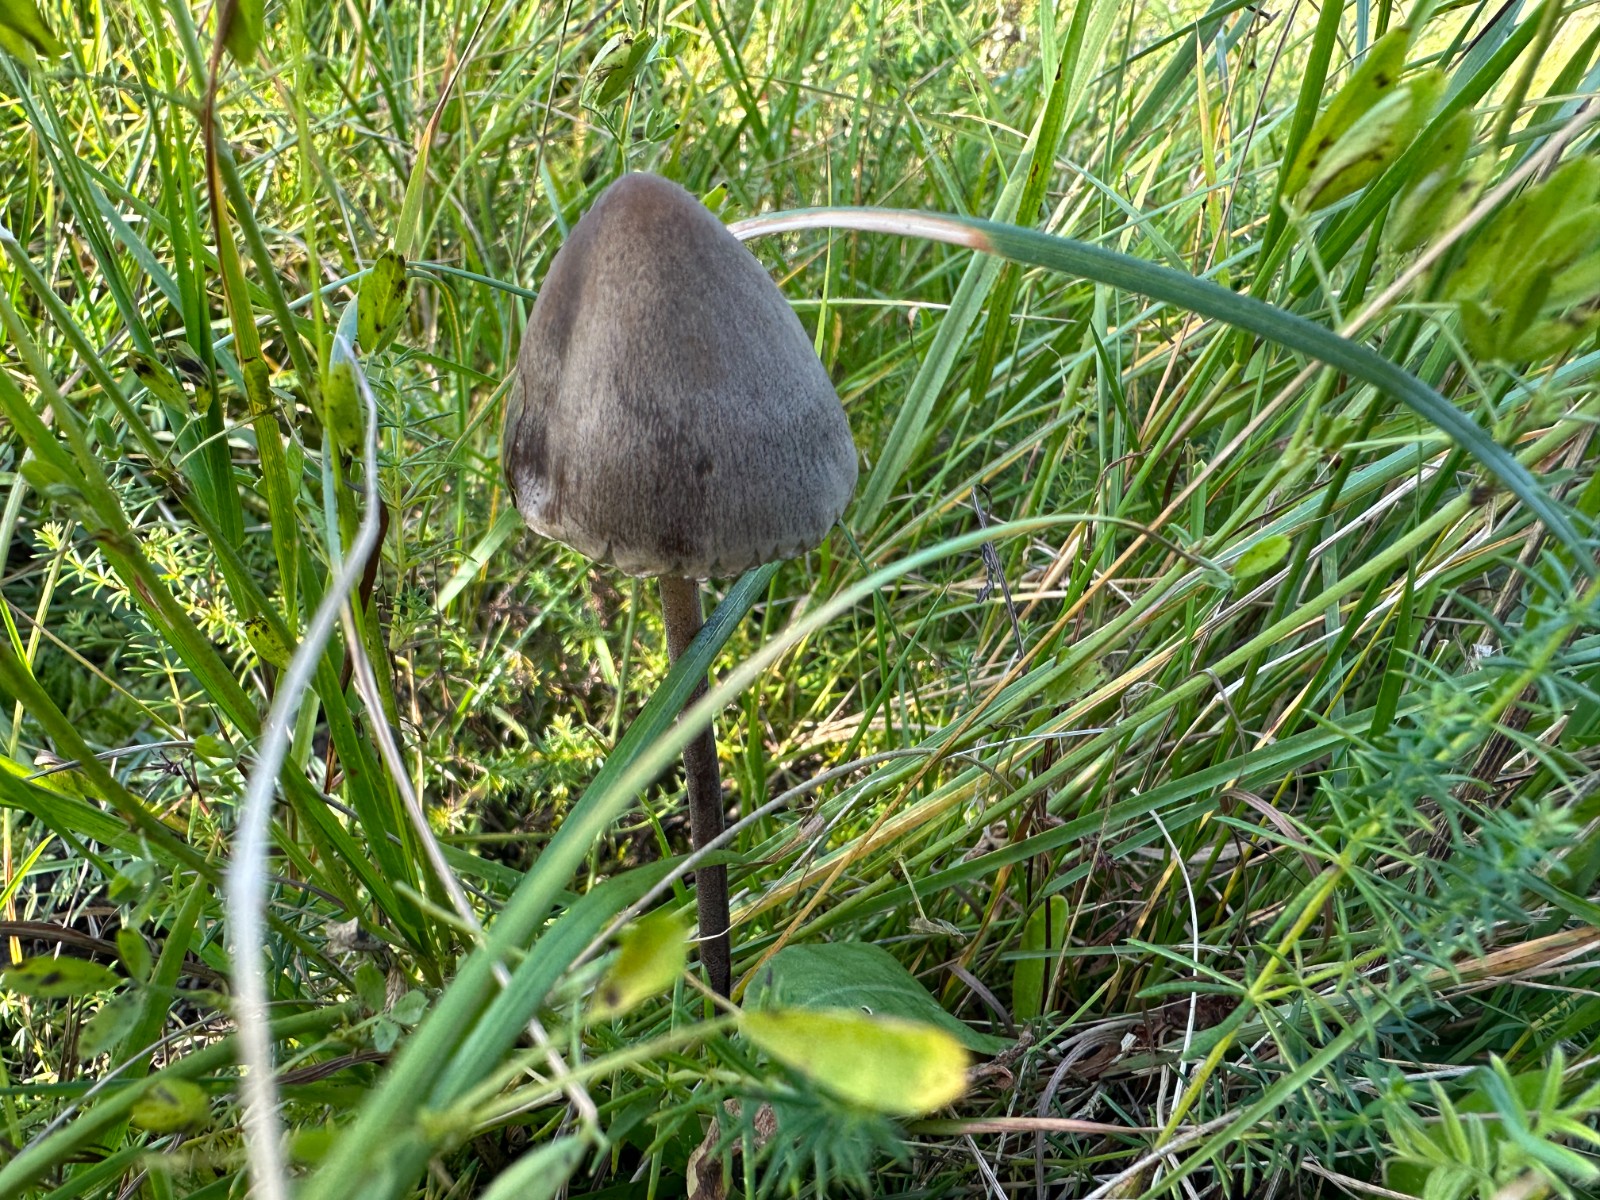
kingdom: Fungi
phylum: Basidiomycota
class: Agaricomycetes
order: Agaricales
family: Bolbitiaceae
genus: Panaeolus
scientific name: Panaeolus papilionaceus
